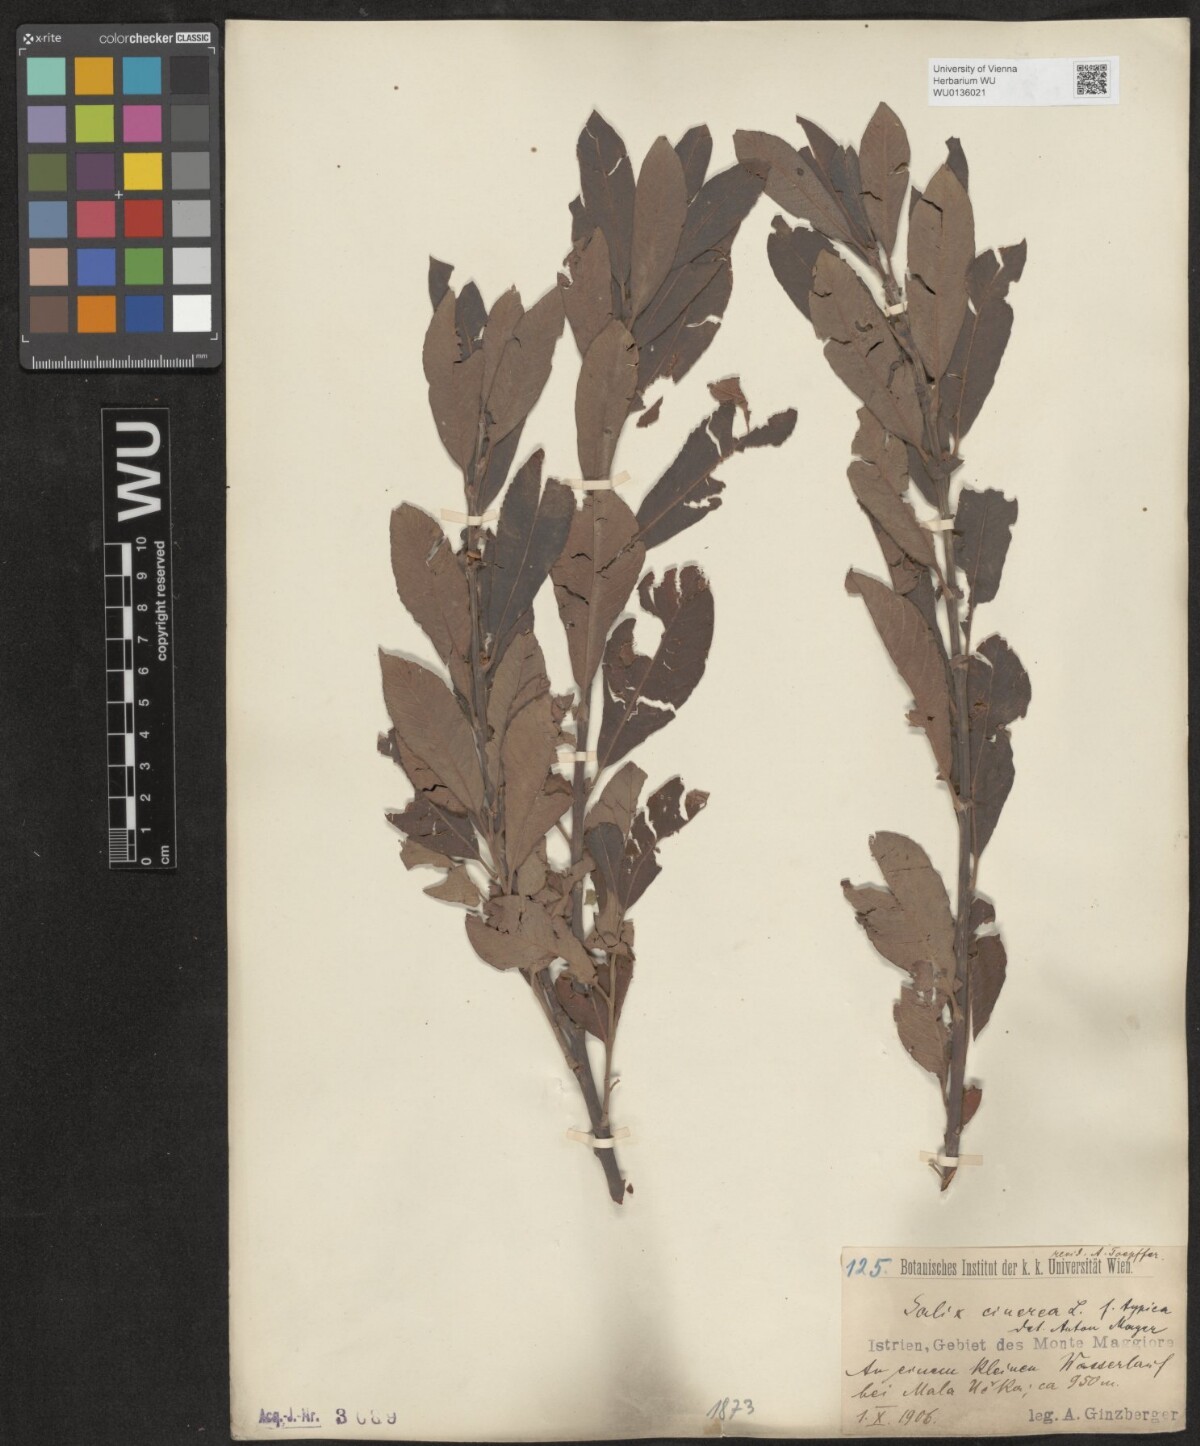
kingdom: Plantae
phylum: Tracheophyta
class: Magnoliopsida
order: Malpighiales
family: Salicaceae
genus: Salix
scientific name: Salix cinerea
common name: Common sallow
